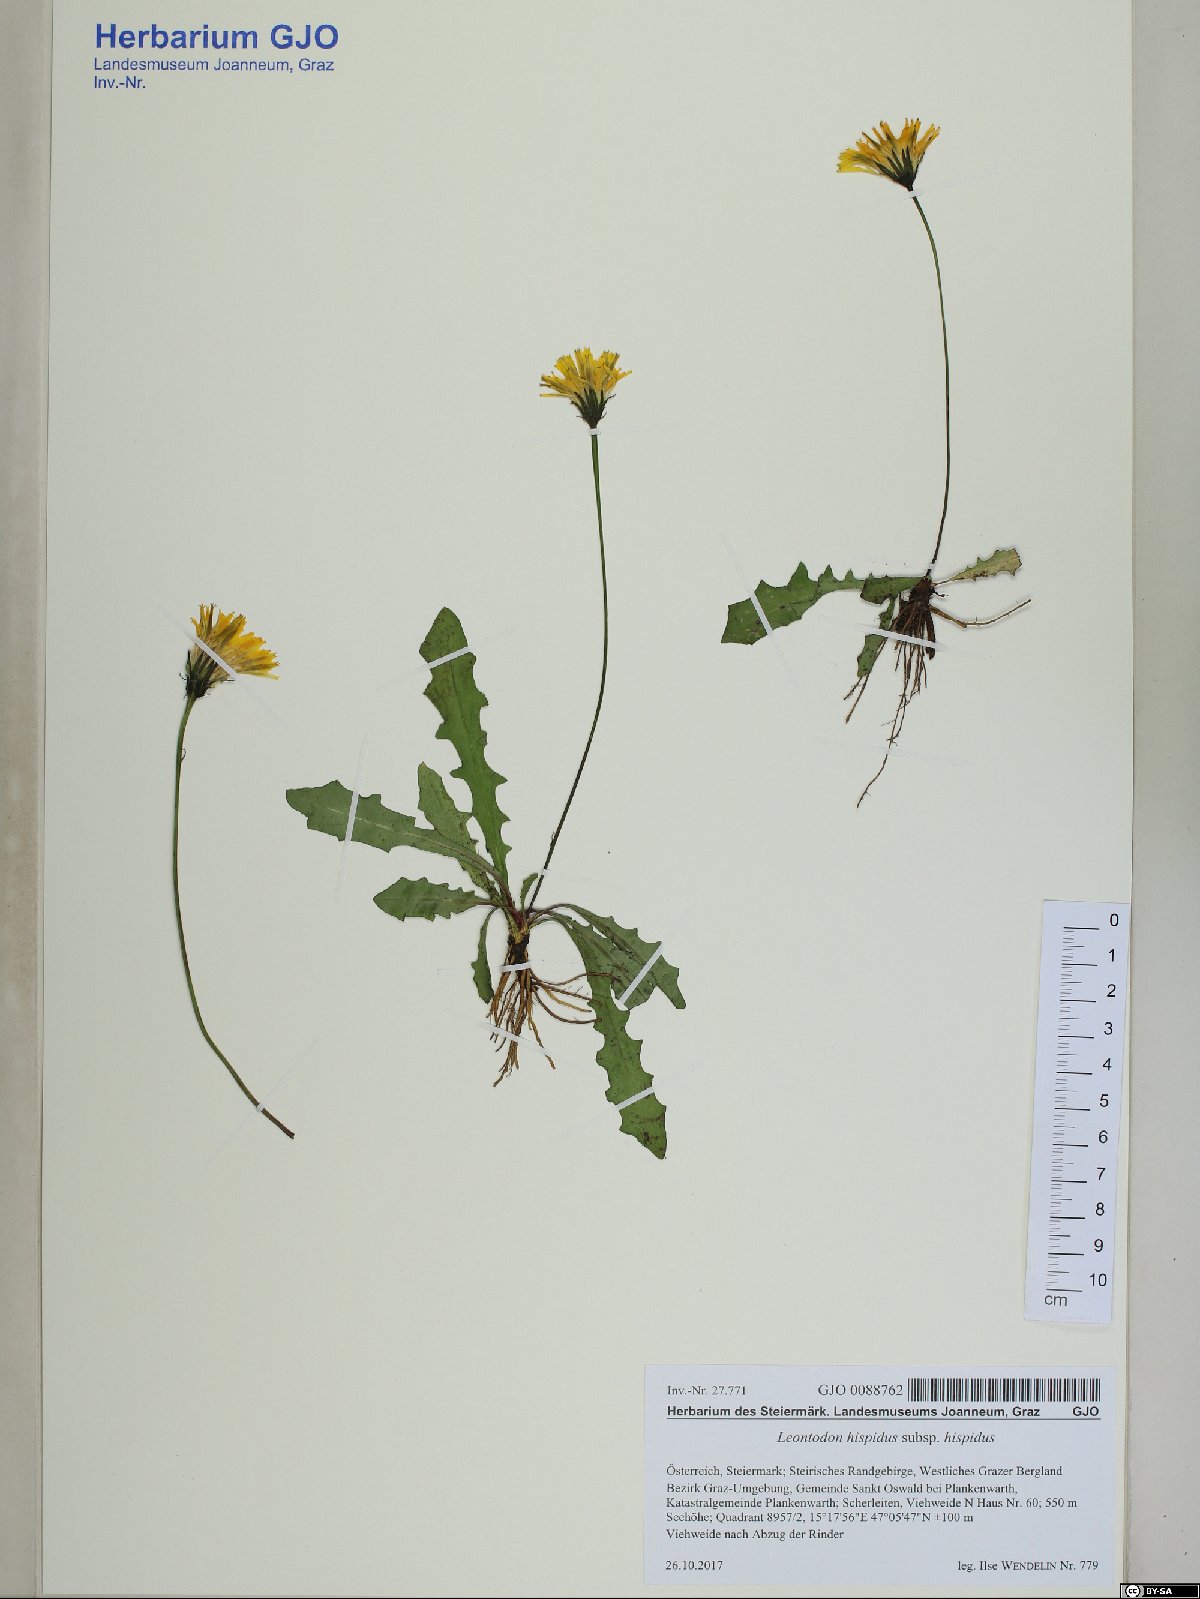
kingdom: Plantae
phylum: Tracheophyta
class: Magnoliopsida
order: Asterales
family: Asteraceae
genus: Leontodon
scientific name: Leontodon hispidus
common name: Rough hawkbit
